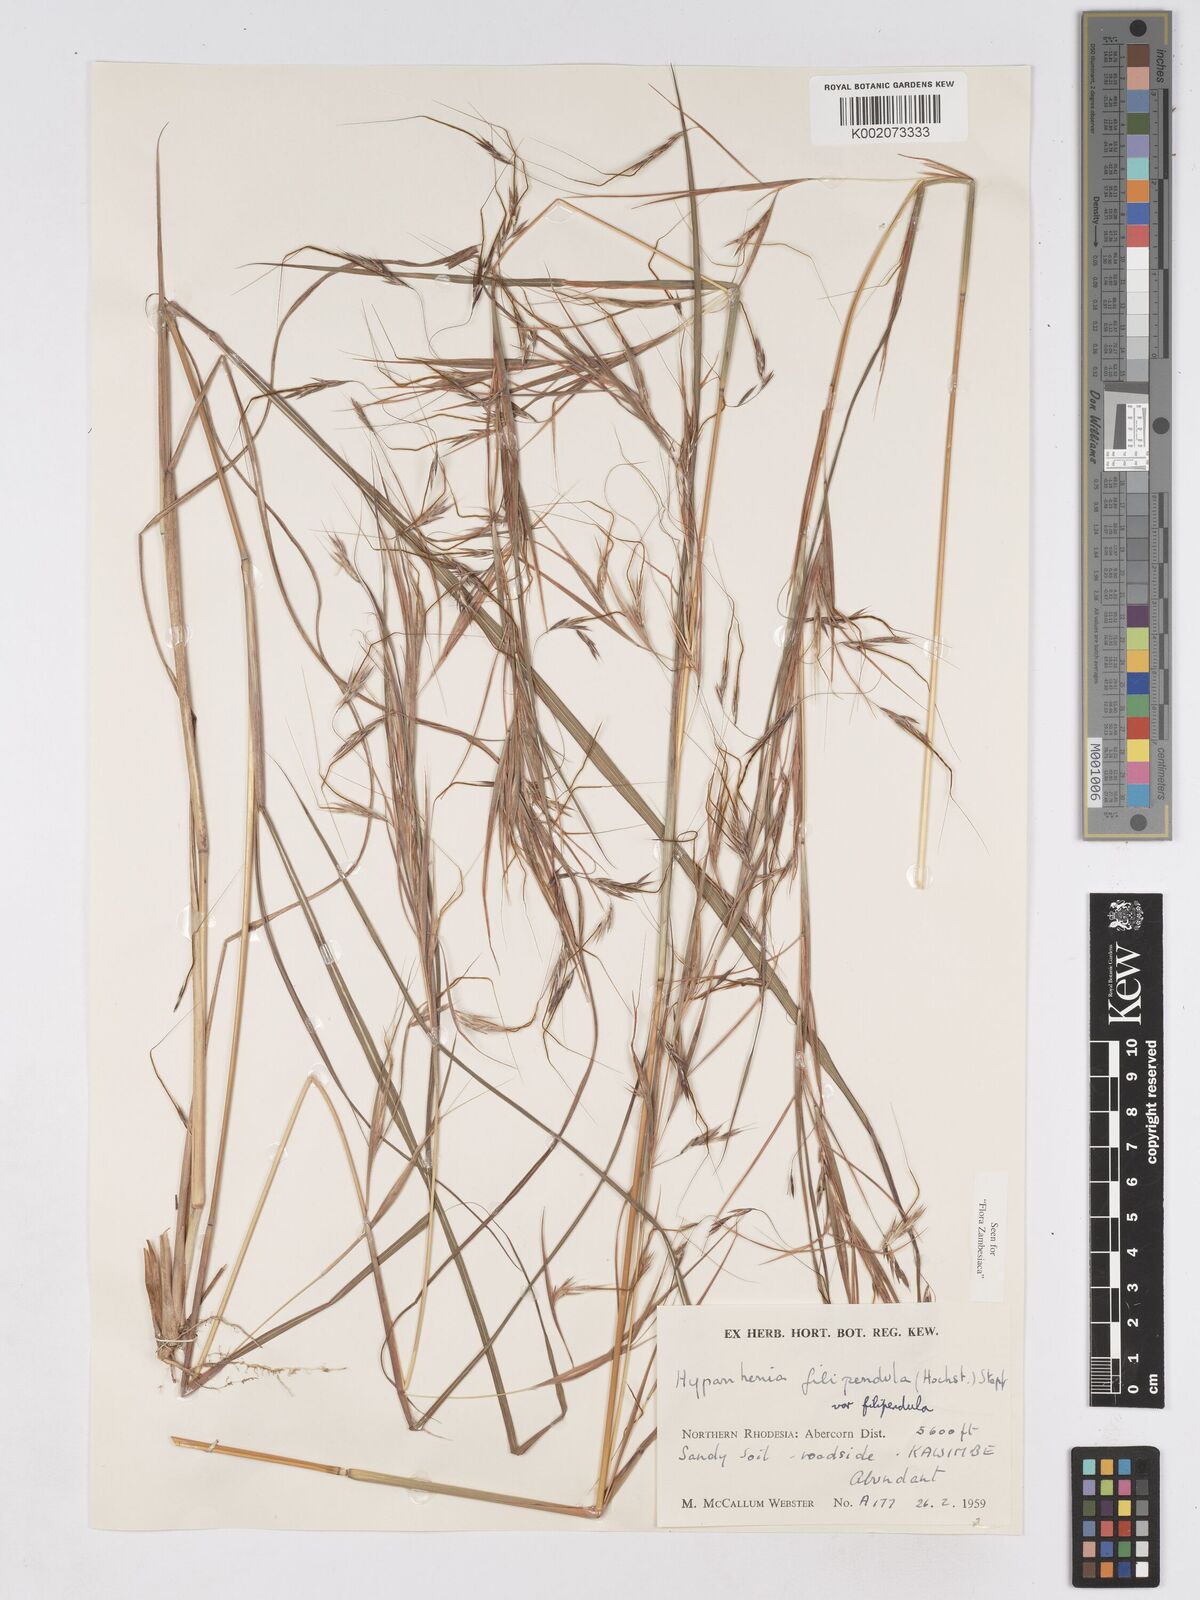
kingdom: Plantae
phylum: Tracheophyta
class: Liliopsida
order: Poales
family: Poaceae
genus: Hyparrhenia
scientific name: Hyparrhenia filipendula
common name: Tambookie grass
